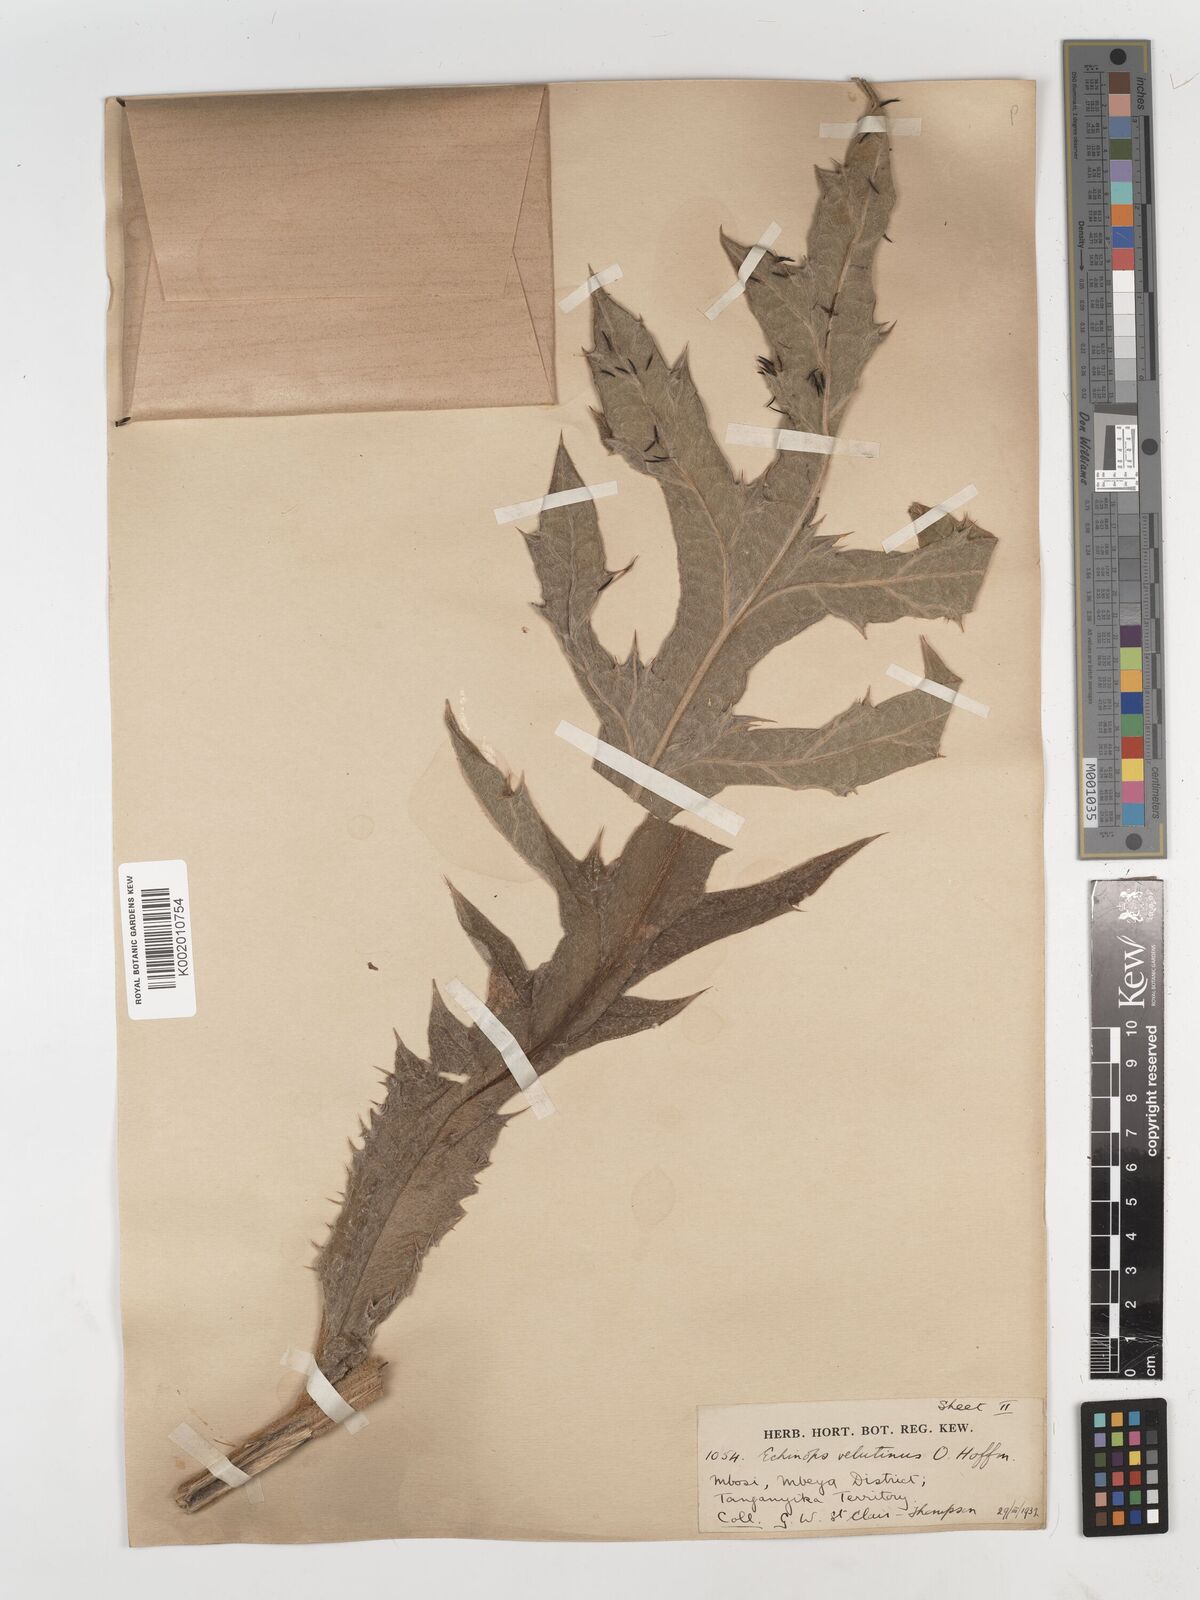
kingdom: Plantae
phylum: Tracheophyta
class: Magnoliopsida
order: Asterales
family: Asteraceae
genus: Echinops
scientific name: Echinops giganteus
